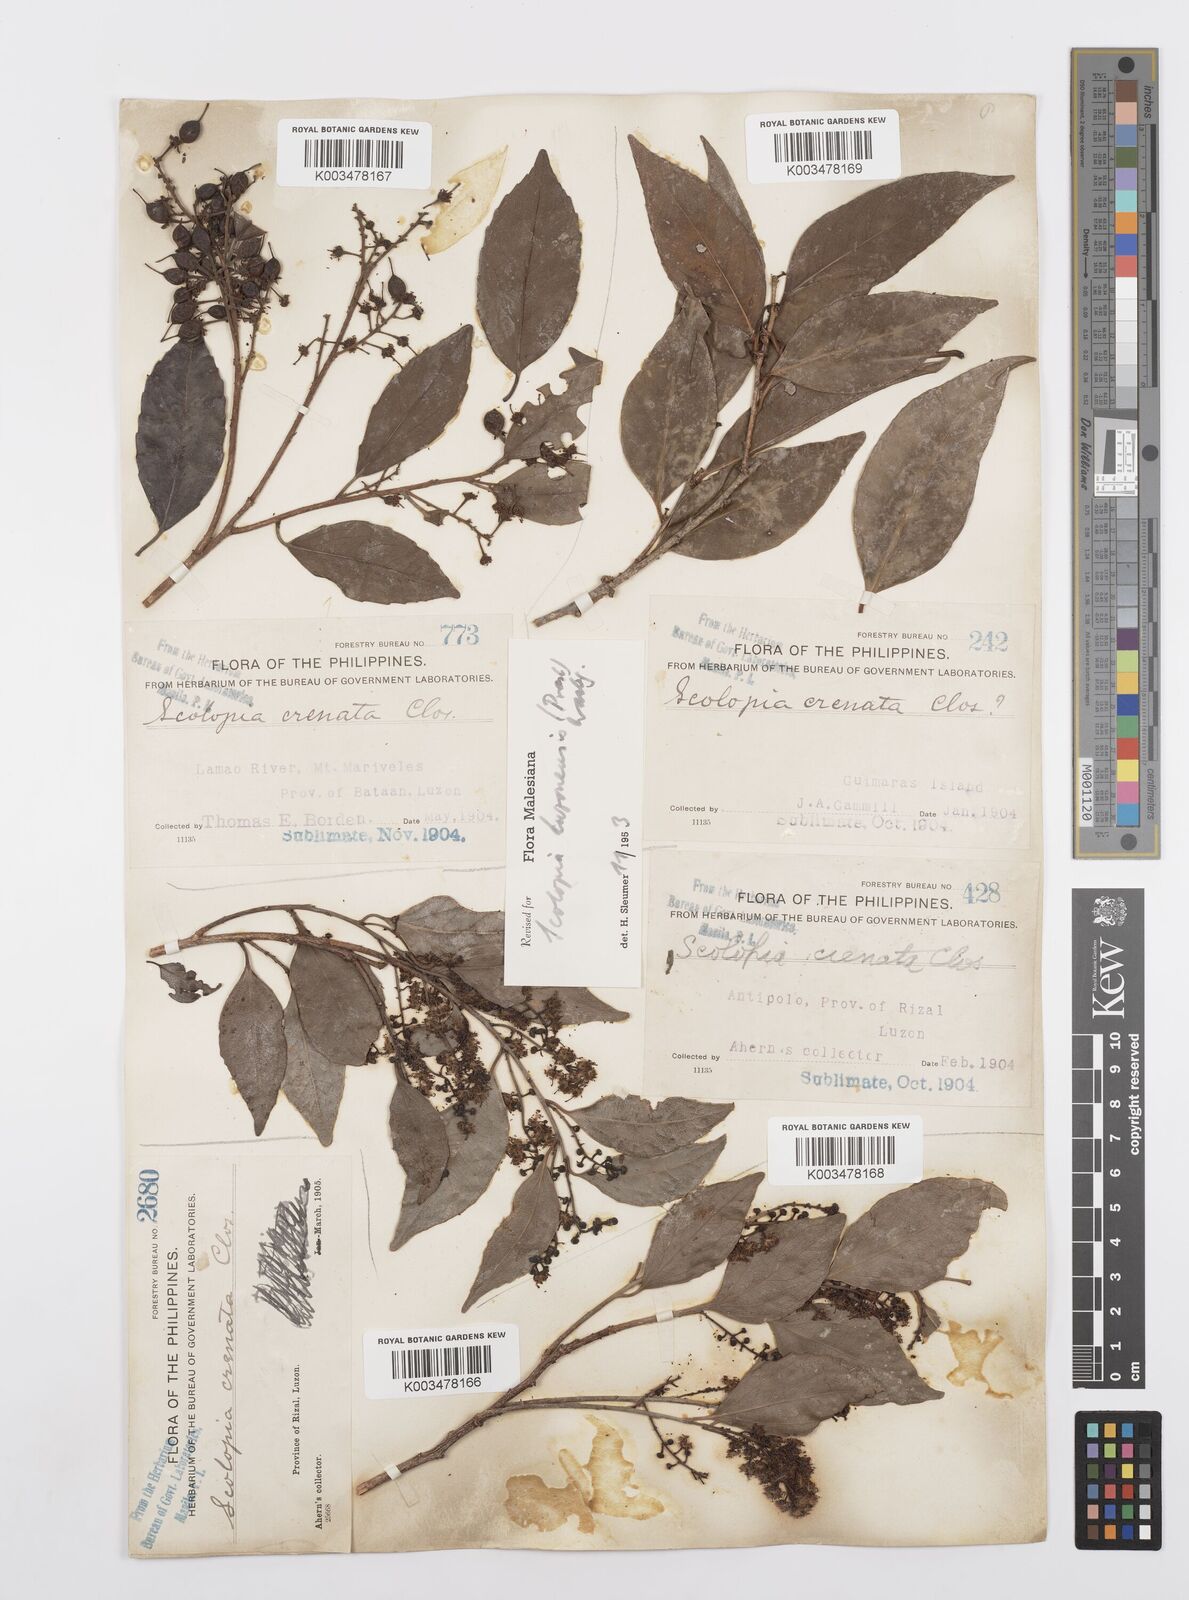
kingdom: Plantae
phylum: Tracheophyta
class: Magnoliopsida
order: Malpighiales
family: Salicaceae
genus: Scolopia
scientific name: Scolopia luzonensis
